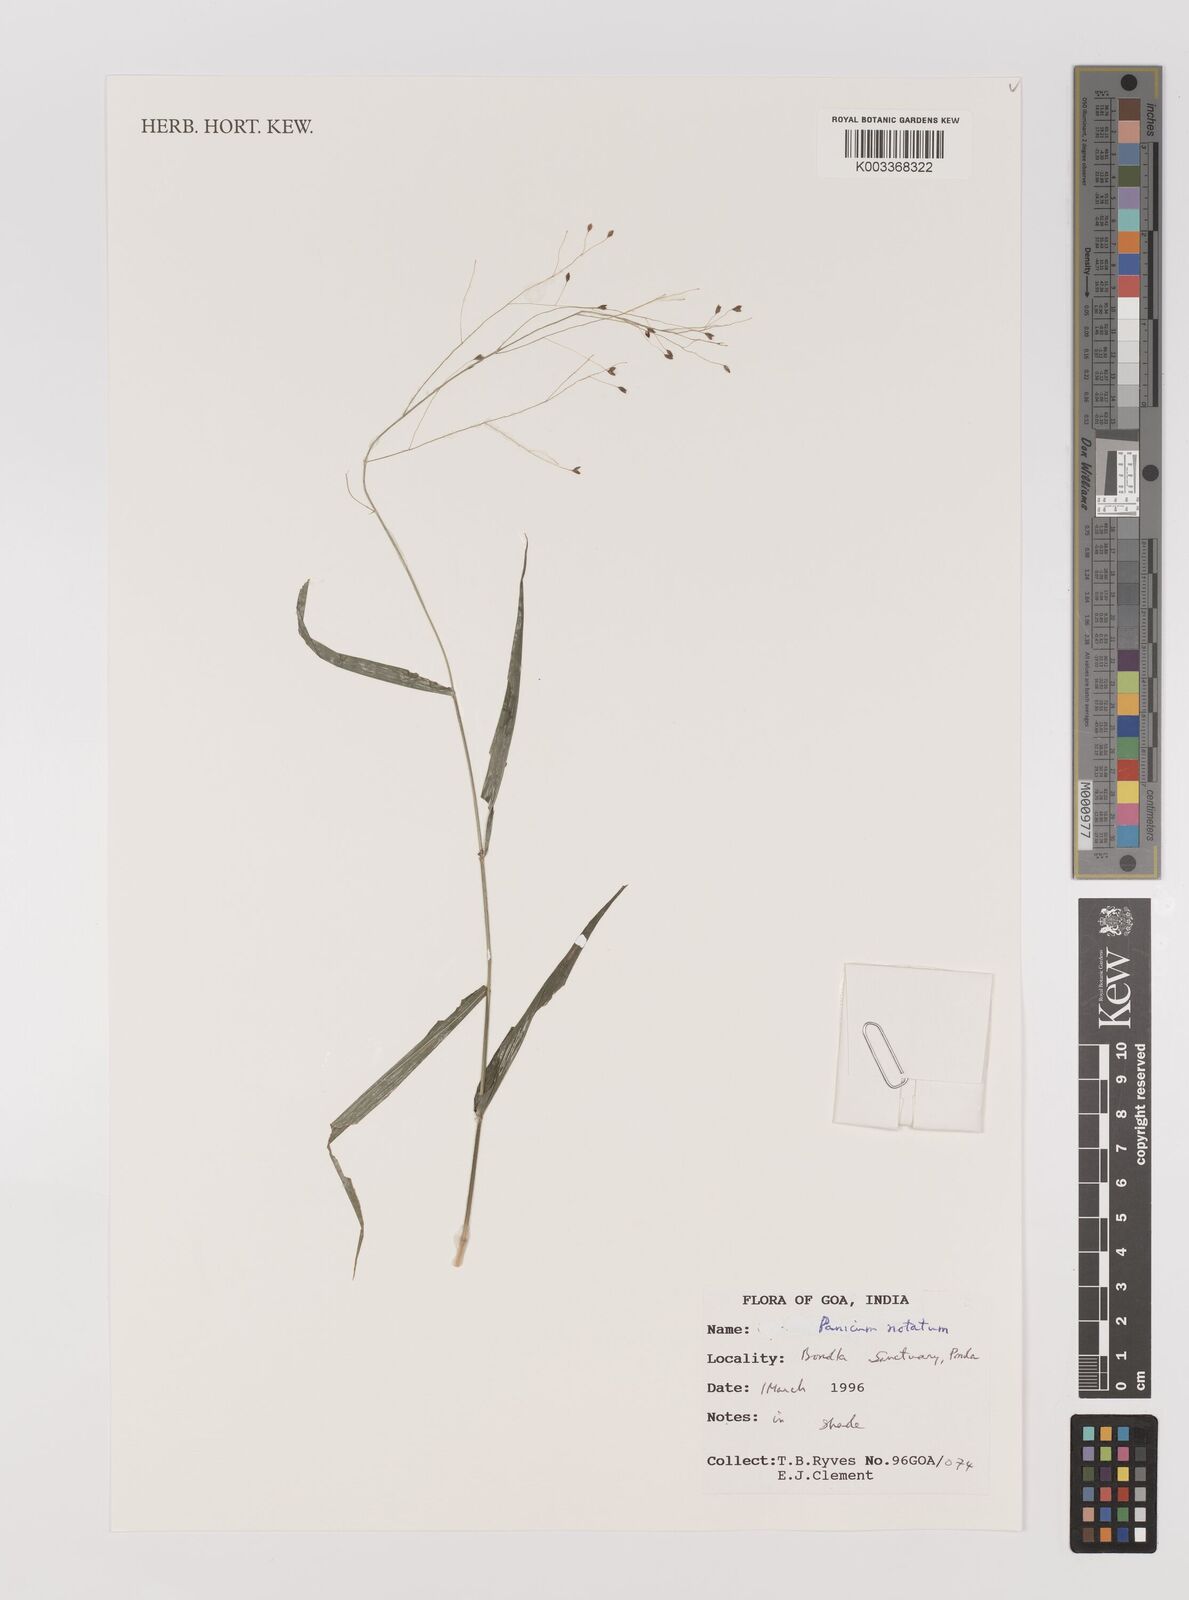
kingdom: Plantae
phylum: Tracheophyta
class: Liliopsida
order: Poales
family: Poaceae
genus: Panicum
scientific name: Panicum notatum
